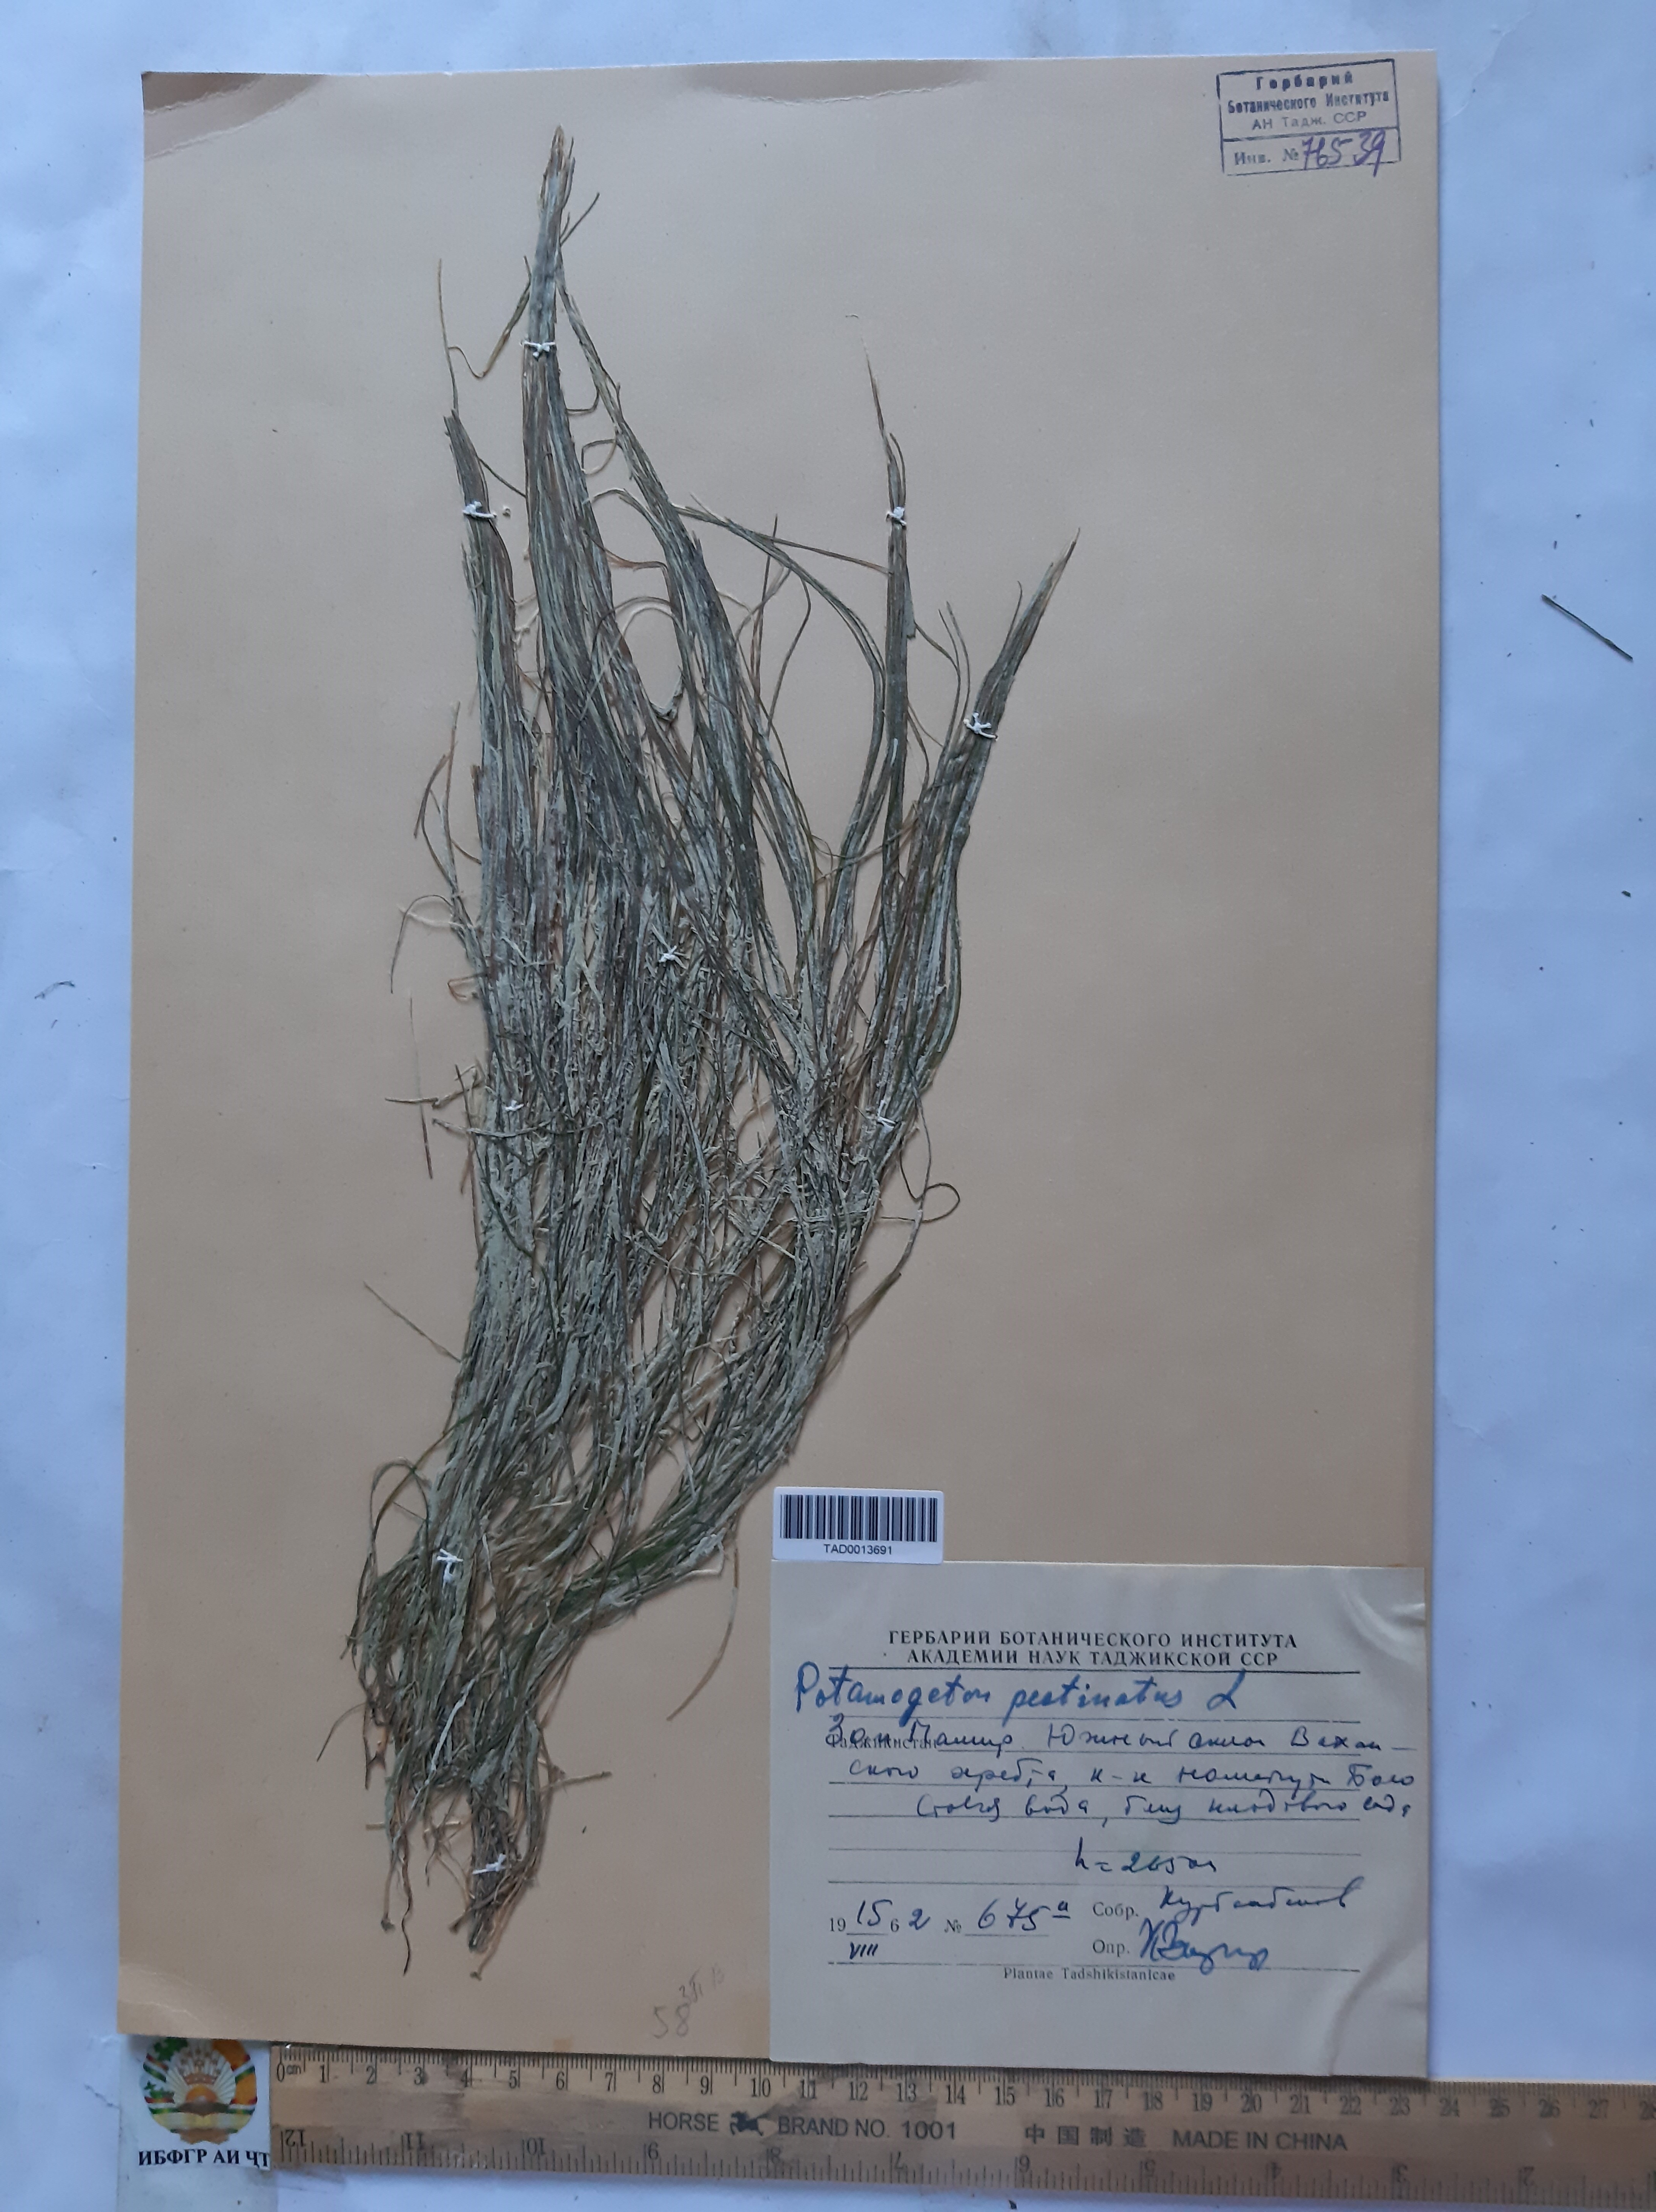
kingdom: Plantae
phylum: Tracheophyta
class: Liliopsida
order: Alismatales
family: Potamogetonaceae
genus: Potamogeton
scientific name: Potamogeton pusillus
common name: Lesser pondweed
